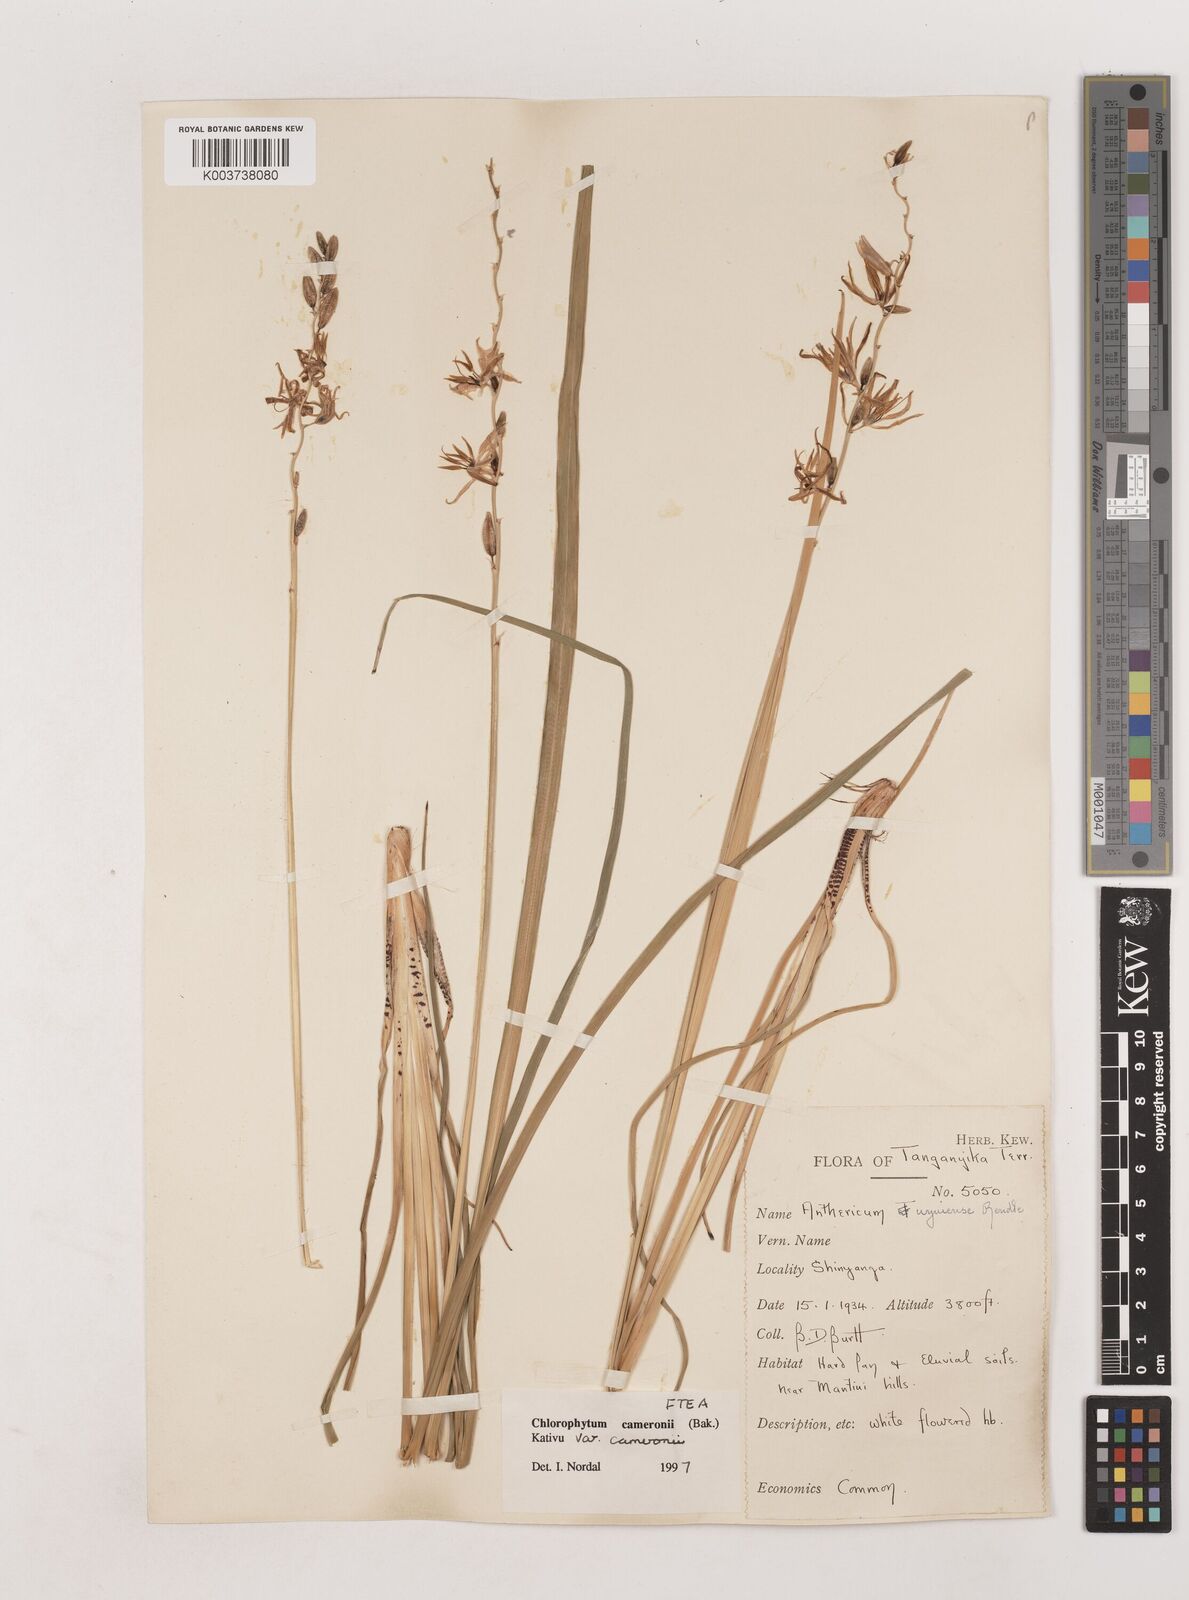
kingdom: Plantae
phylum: Tracheophyta
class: Liliopsida
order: Asparagales
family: Asparagaceae
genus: Chlorophytum
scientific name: Chlorophytum cameronii
